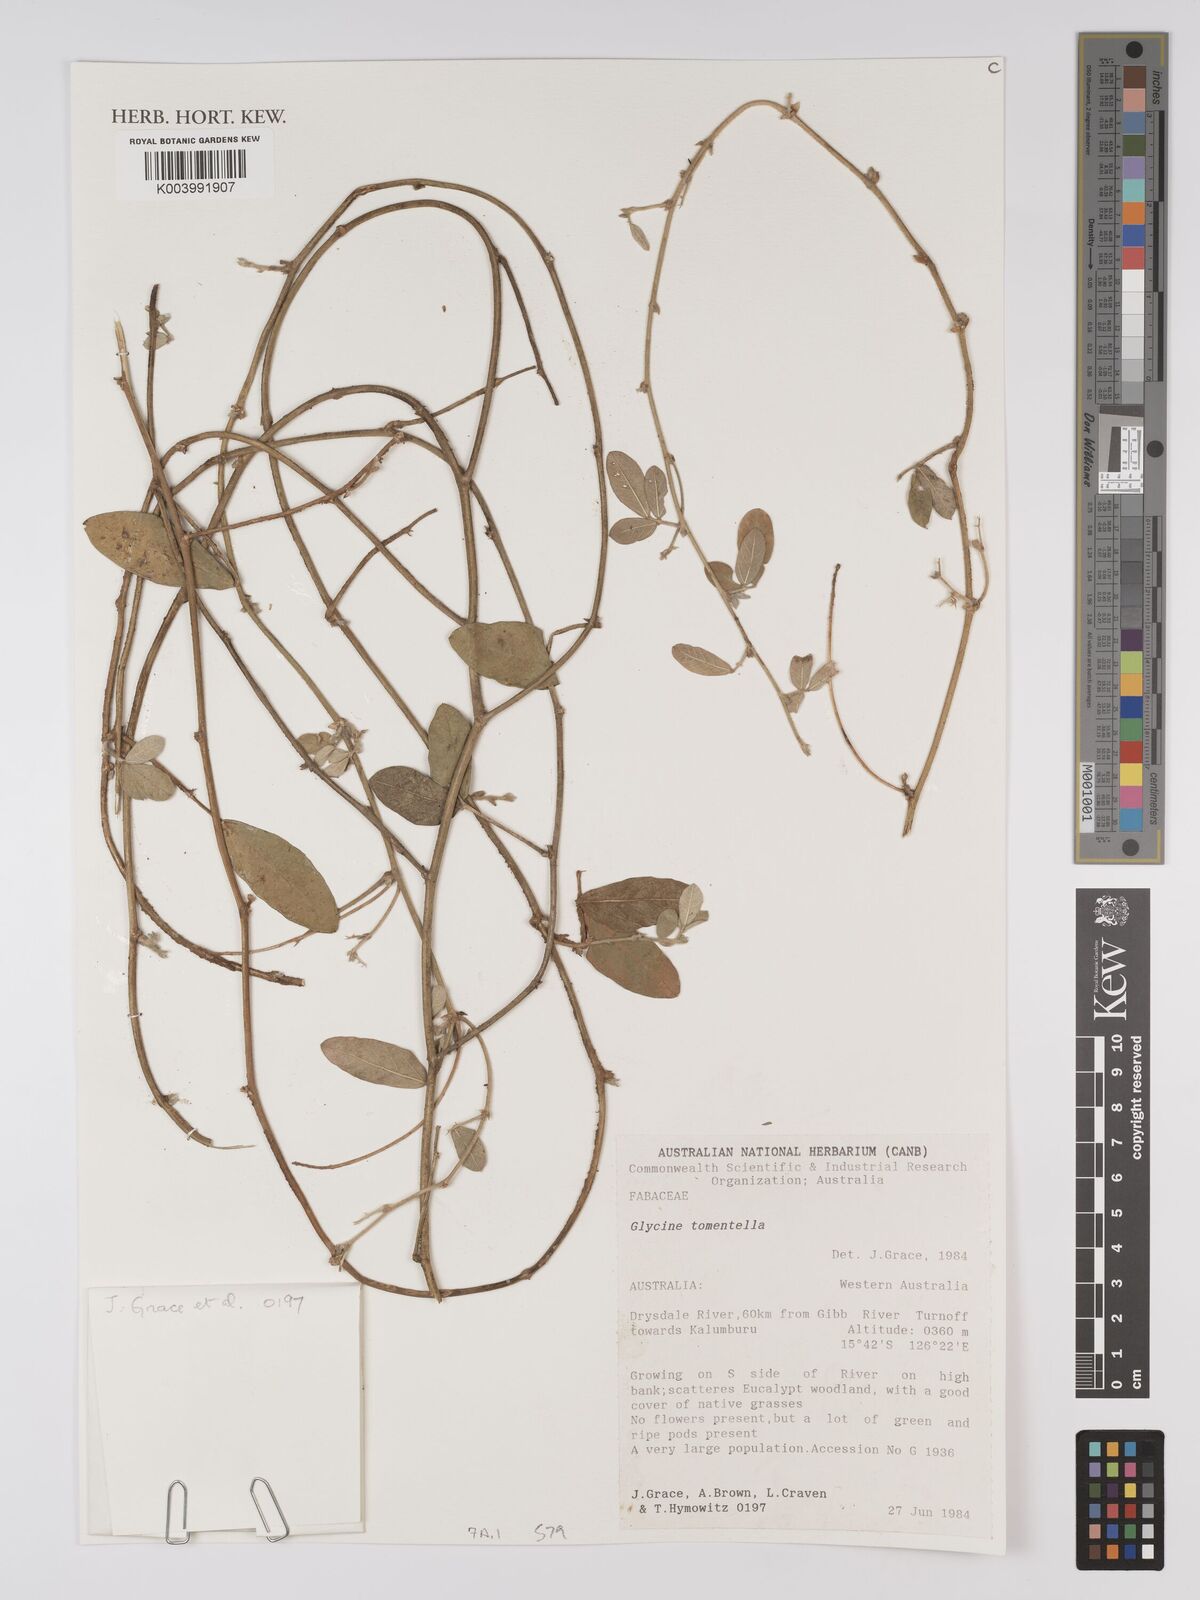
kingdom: Plantae
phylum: Tracheophyta
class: Magnoliopsida
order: Fabales
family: Fabaceae
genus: Glycine
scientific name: Glycine tomentella
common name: Hairy glycine
